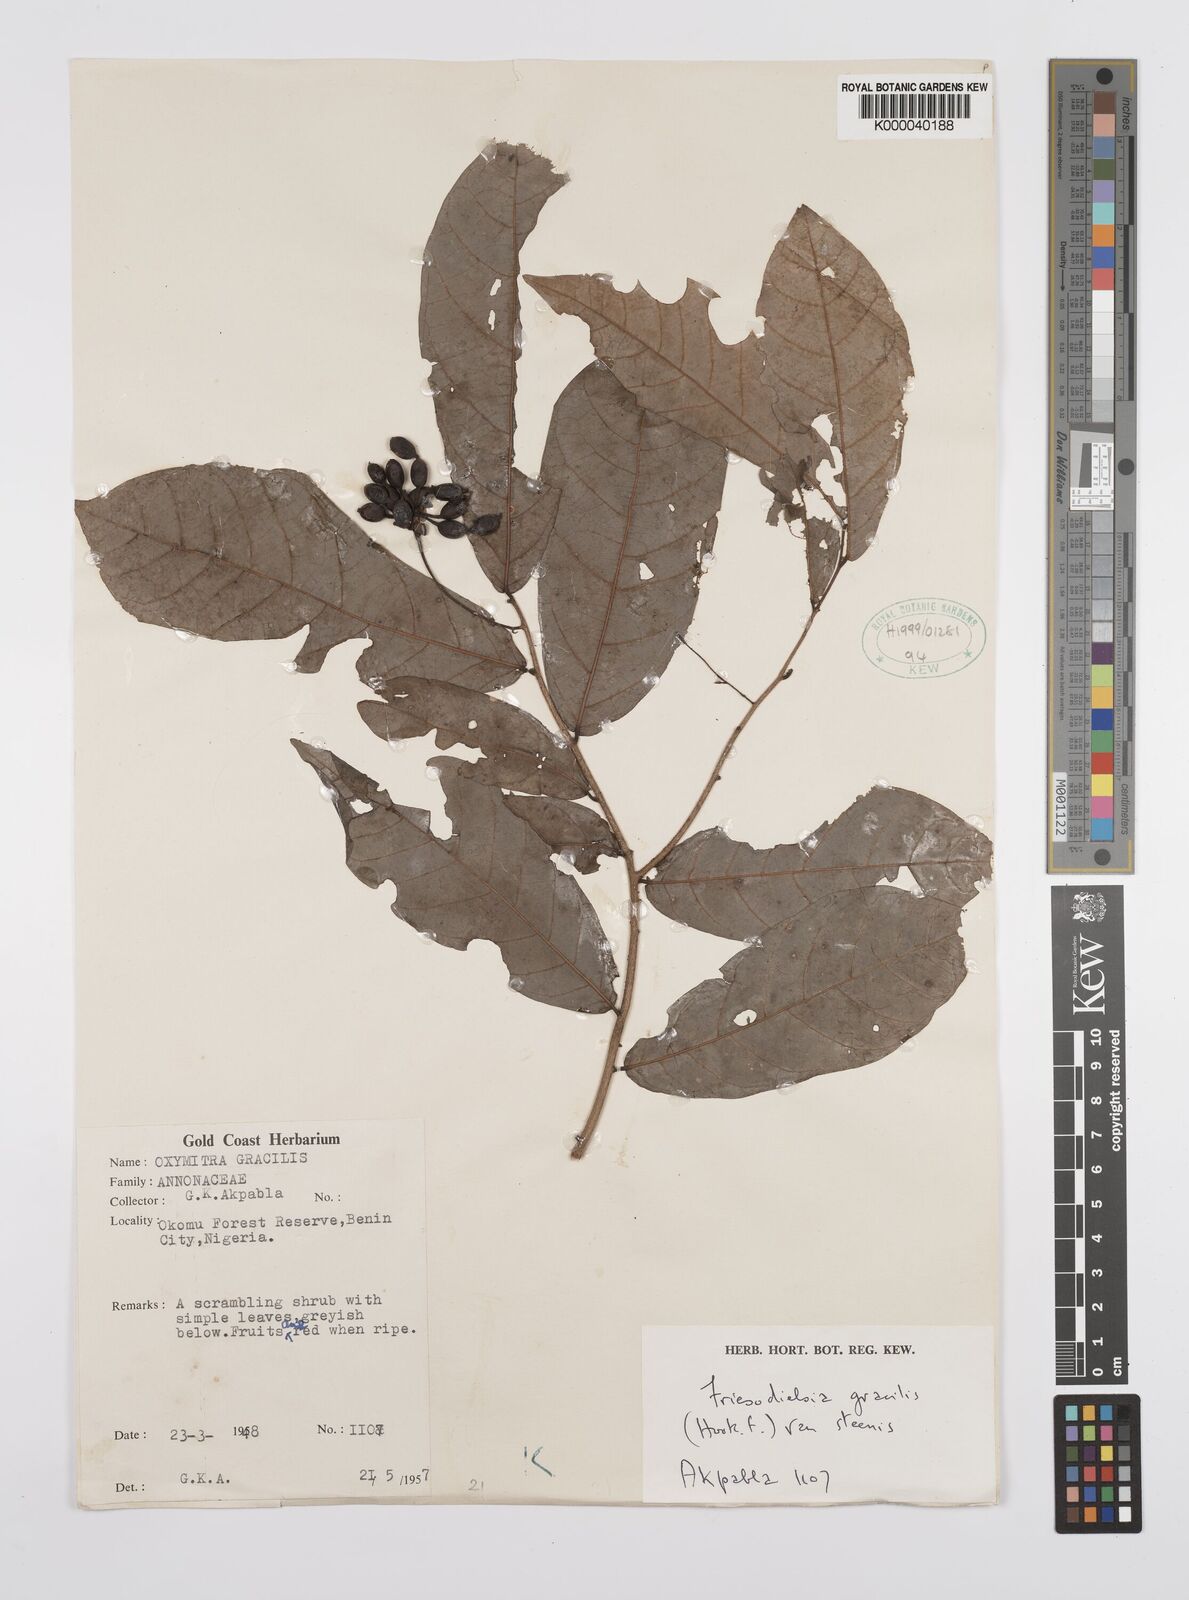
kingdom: Plantae
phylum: Tracheophyta
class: Magnoliopsida
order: Magnoliales
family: Annonaceae
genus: Friesodielsia
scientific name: Friesodielsia gracilis
